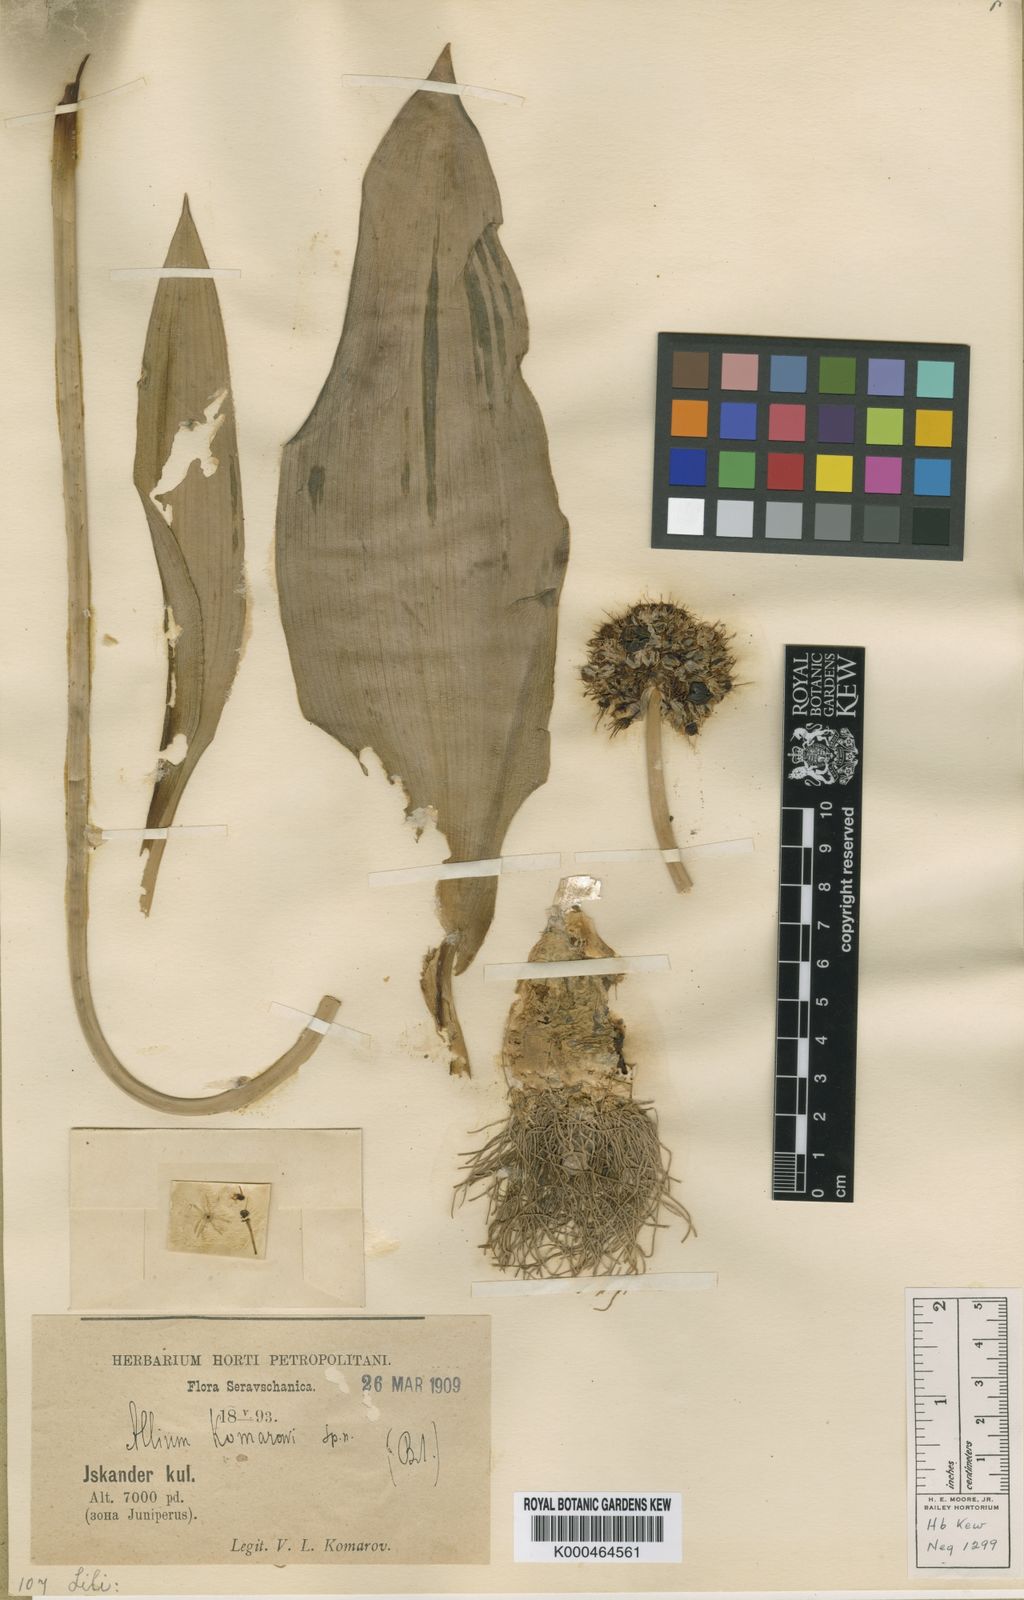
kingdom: Plantae
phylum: Tracheophyta
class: Liliopsida
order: Asparagales
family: Amaryllidaceae
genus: Allium
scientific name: Allium komarowii
